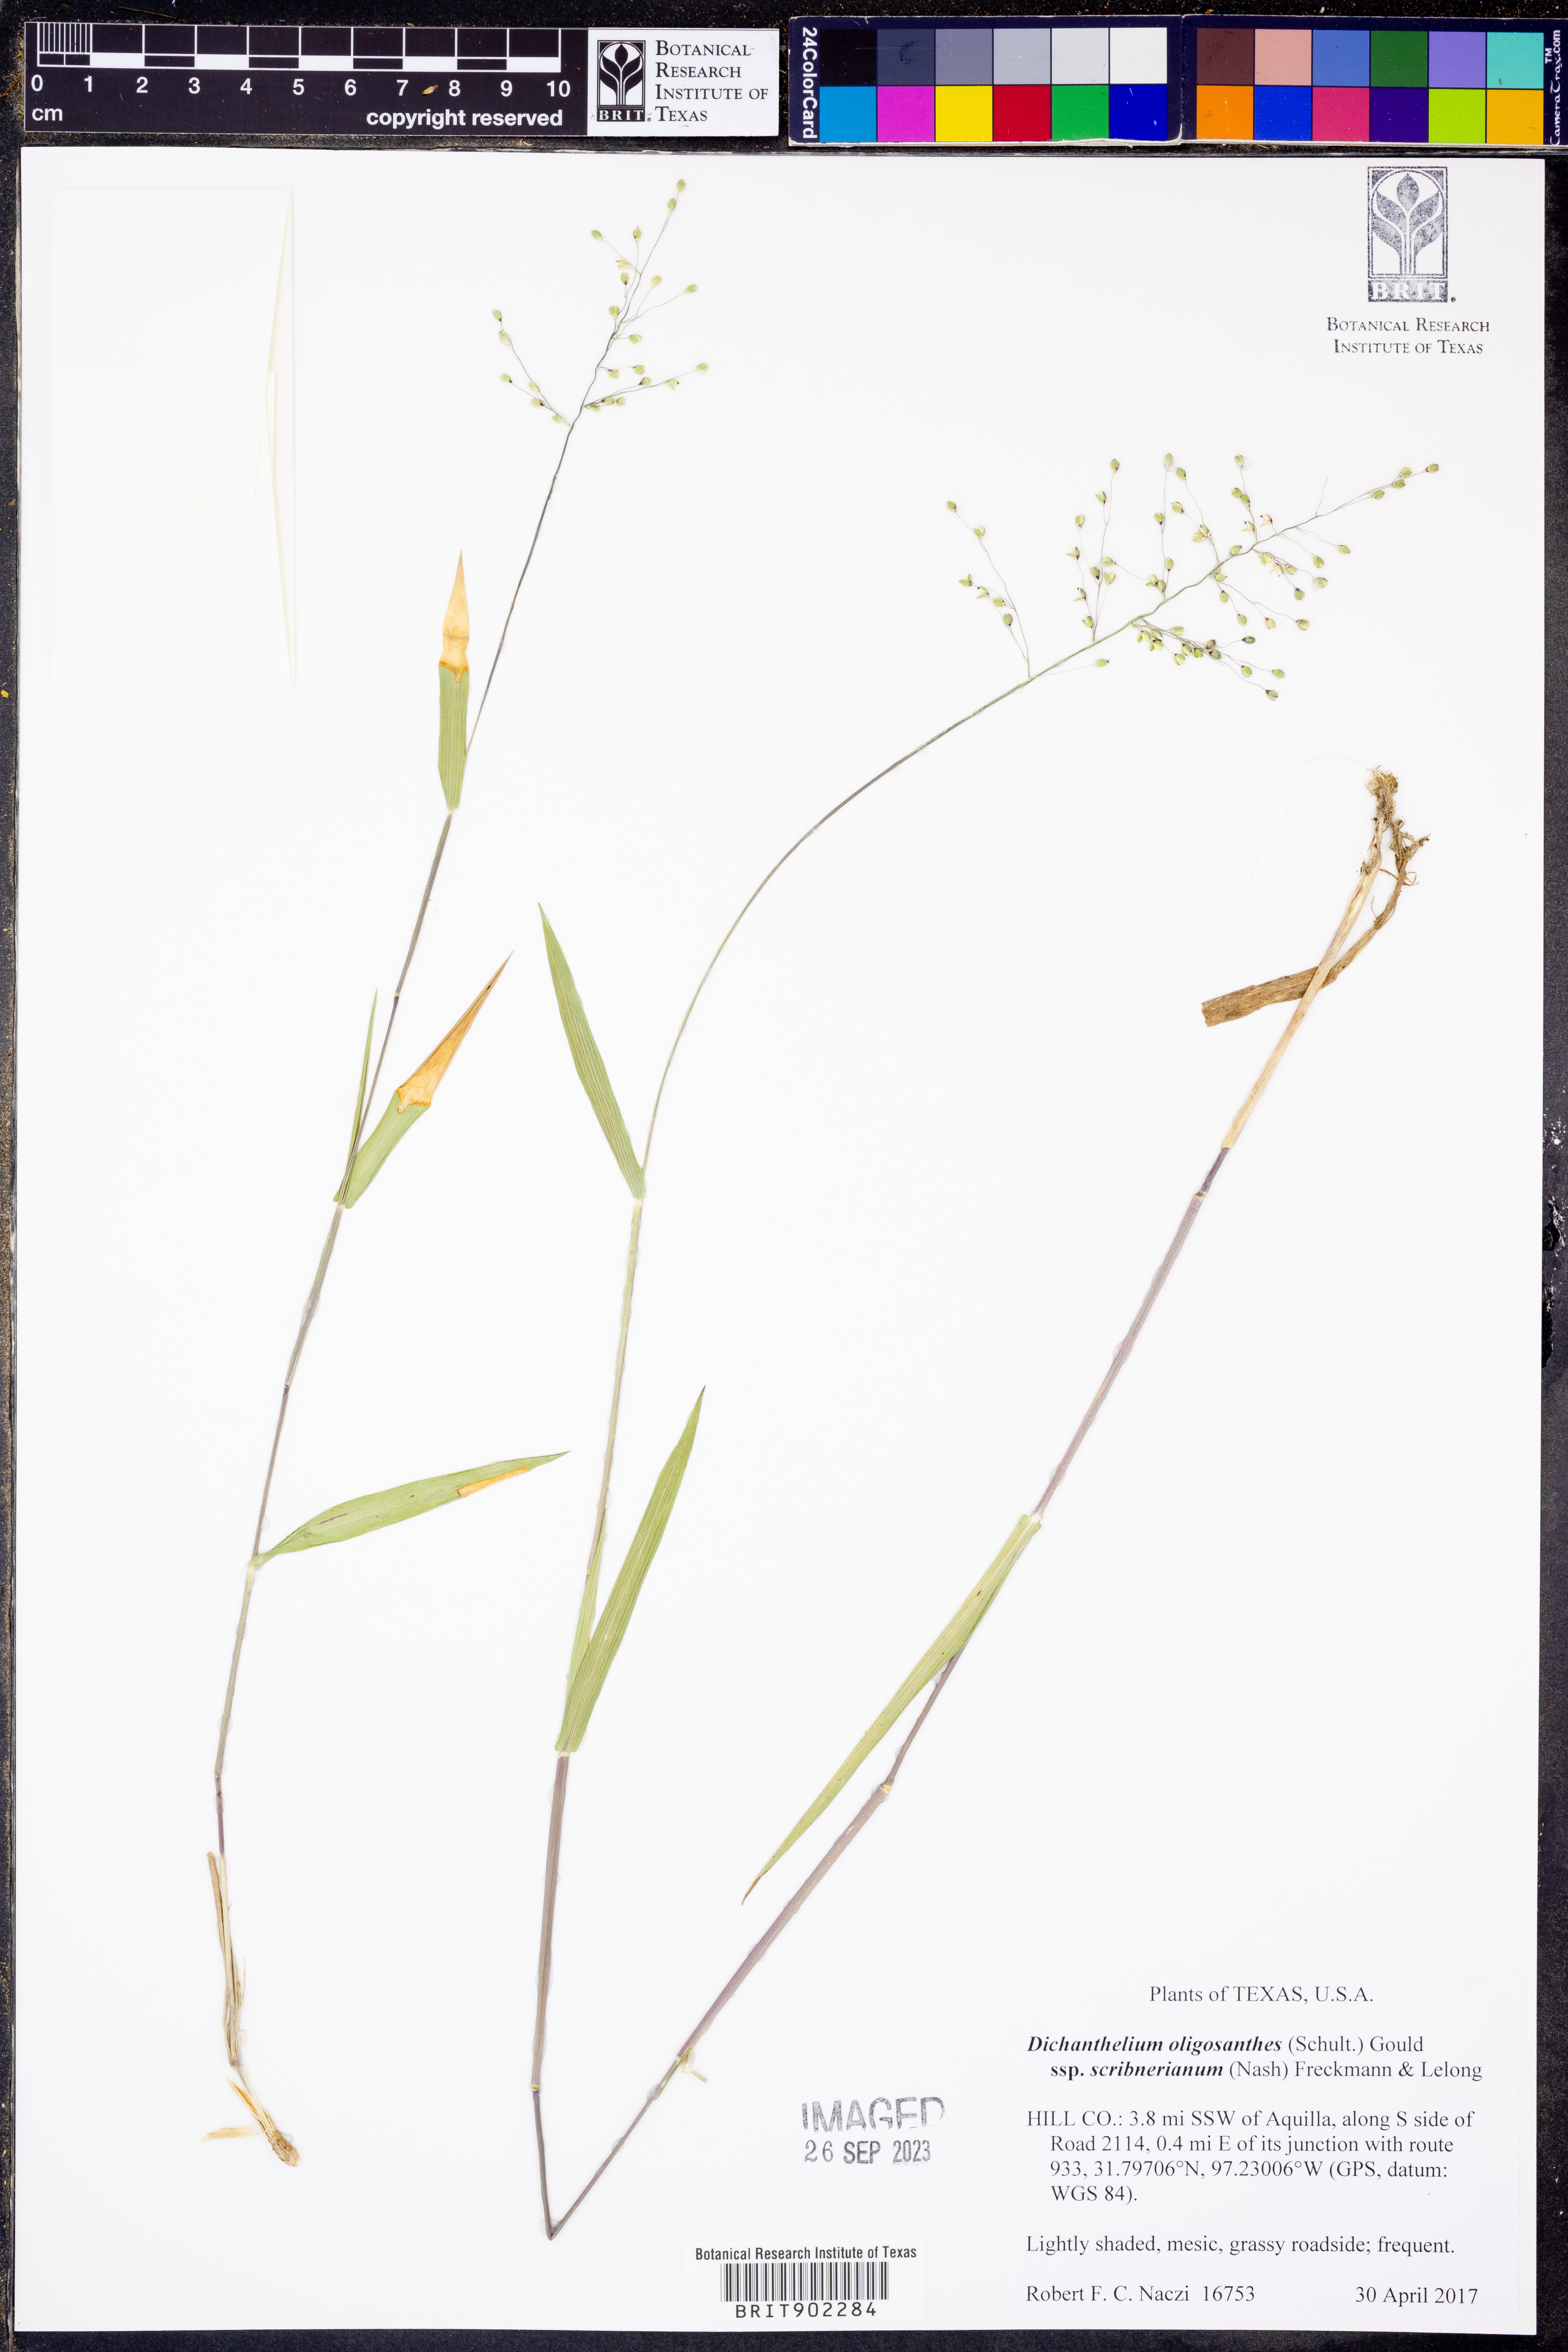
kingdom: Plantae
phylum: Tracheophyta
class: Liliopsida
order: Poales
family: Poaceae
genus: Dichanthelium
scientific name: Dichanthelium scribnerianum
